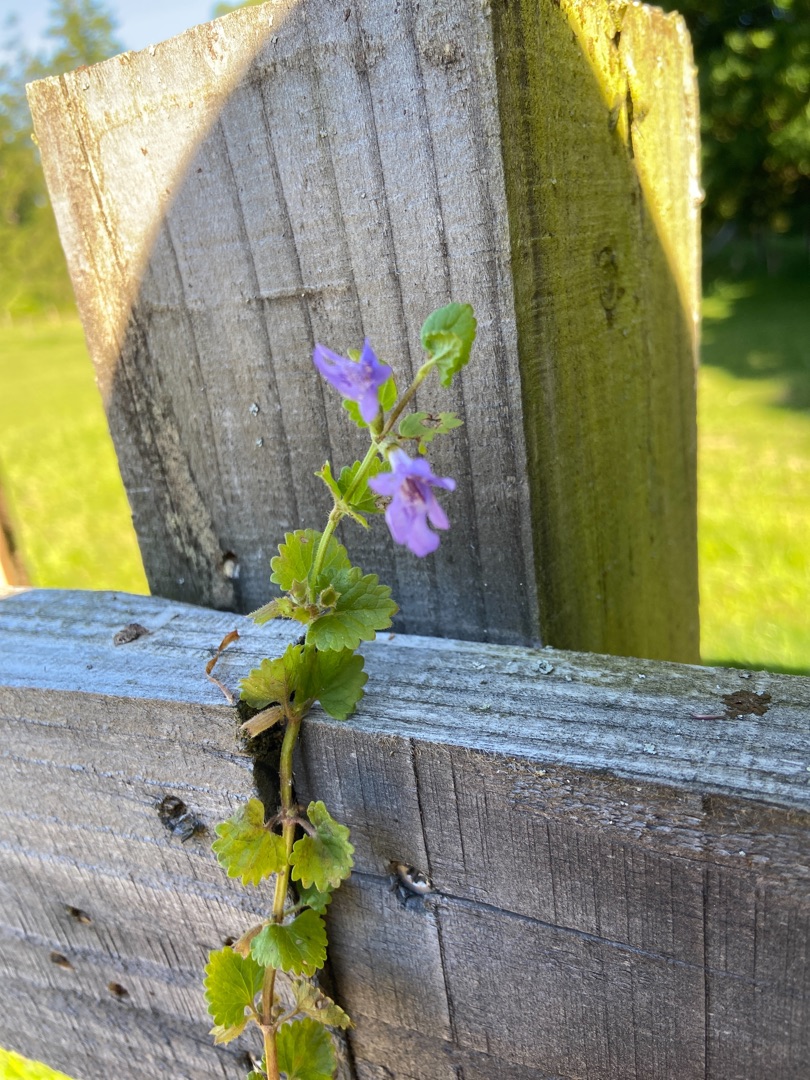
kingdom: Plantae
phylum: Tracheophyta
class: Magnoliopsida
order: Lamiales
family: Lamiaceae
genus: Glechoma
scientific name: Glechoma hederacea
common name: Korsknap
